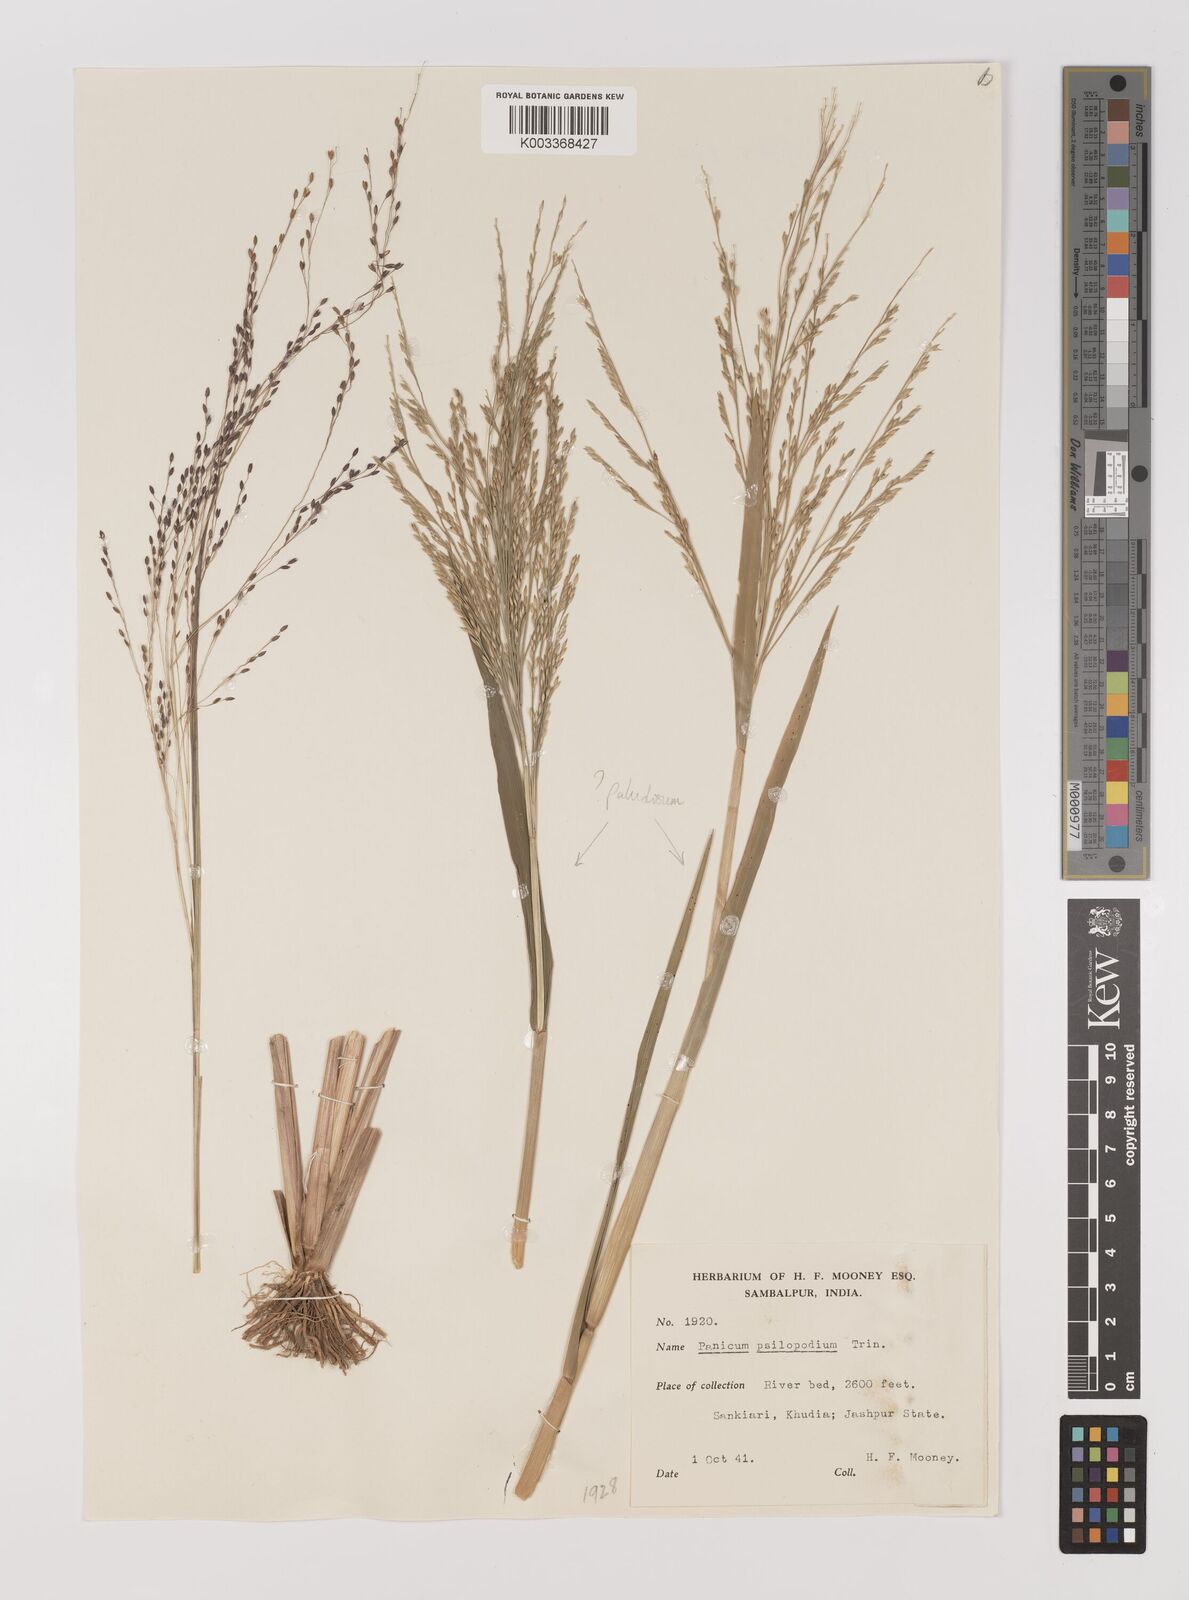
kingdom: Plantae
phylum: Tracheophyta
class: Liliopsida
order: Poales
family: Poaceae
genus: Panicum
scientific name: Panicum sumatrense
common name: Little millet
